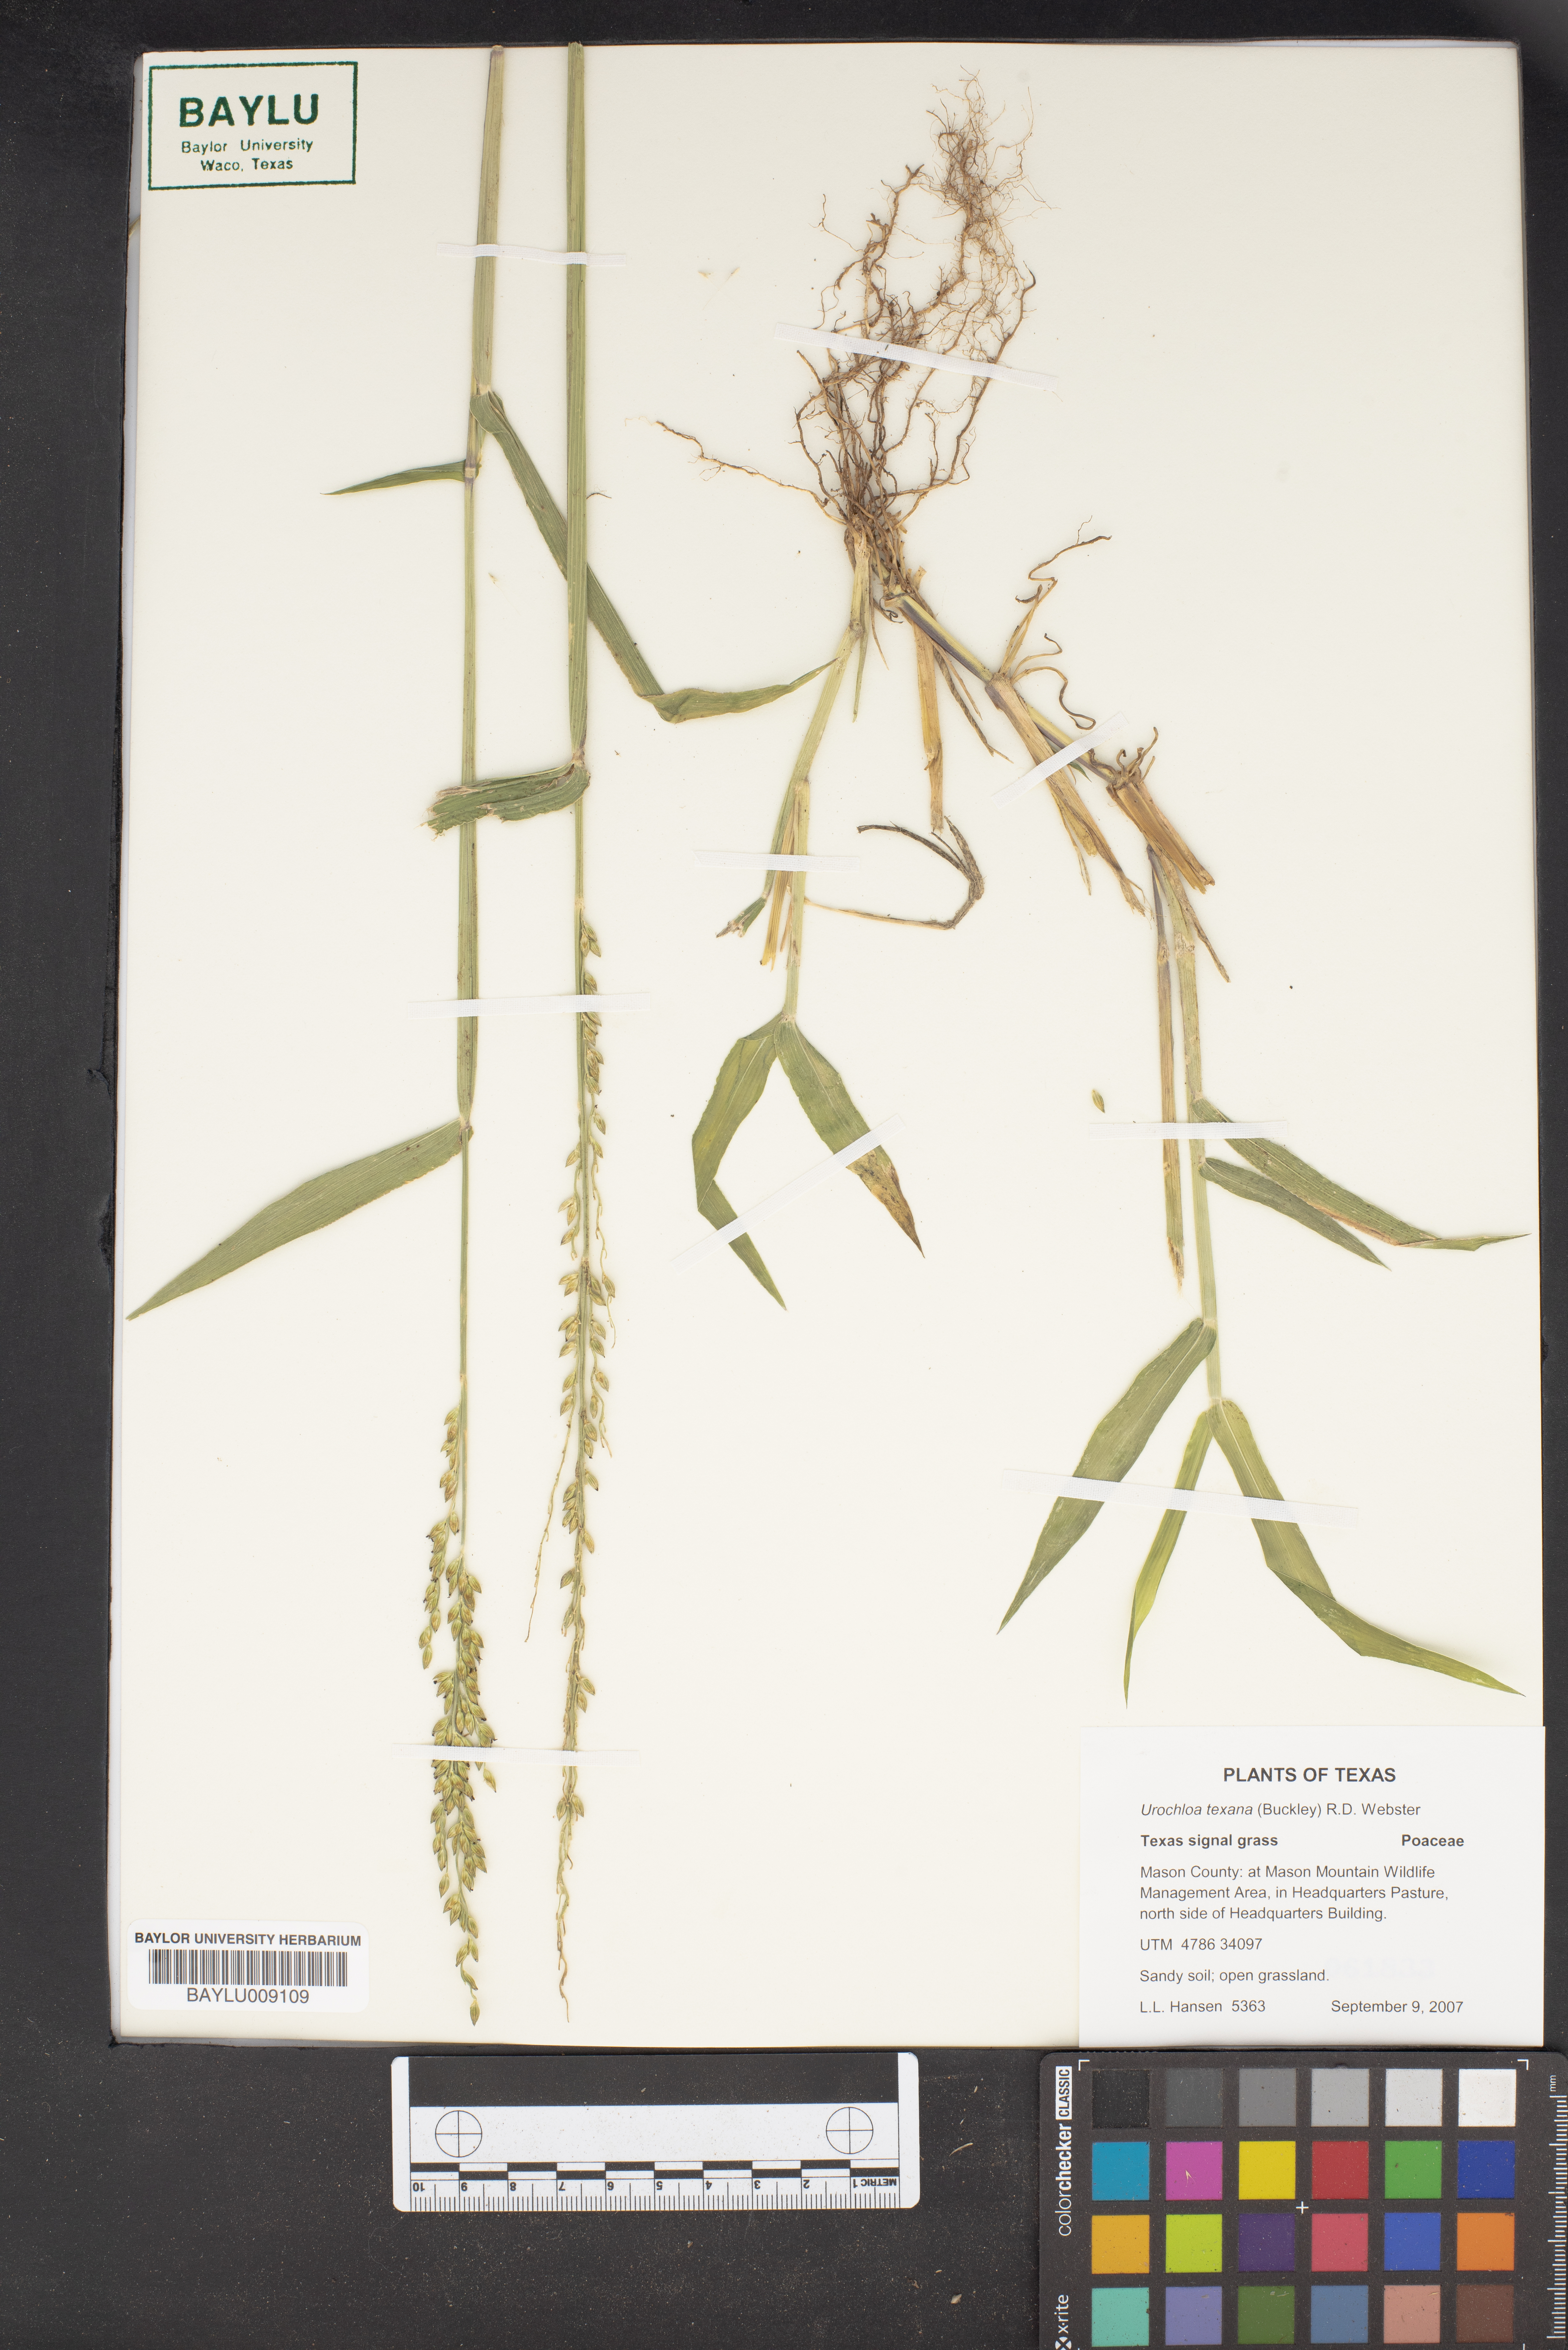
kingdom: Plantae
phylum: Tracheophyta
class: Liliopsida
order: Poales
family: Poaceae
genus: Urochloa
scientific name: Urochloa texana
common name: Texas millet
